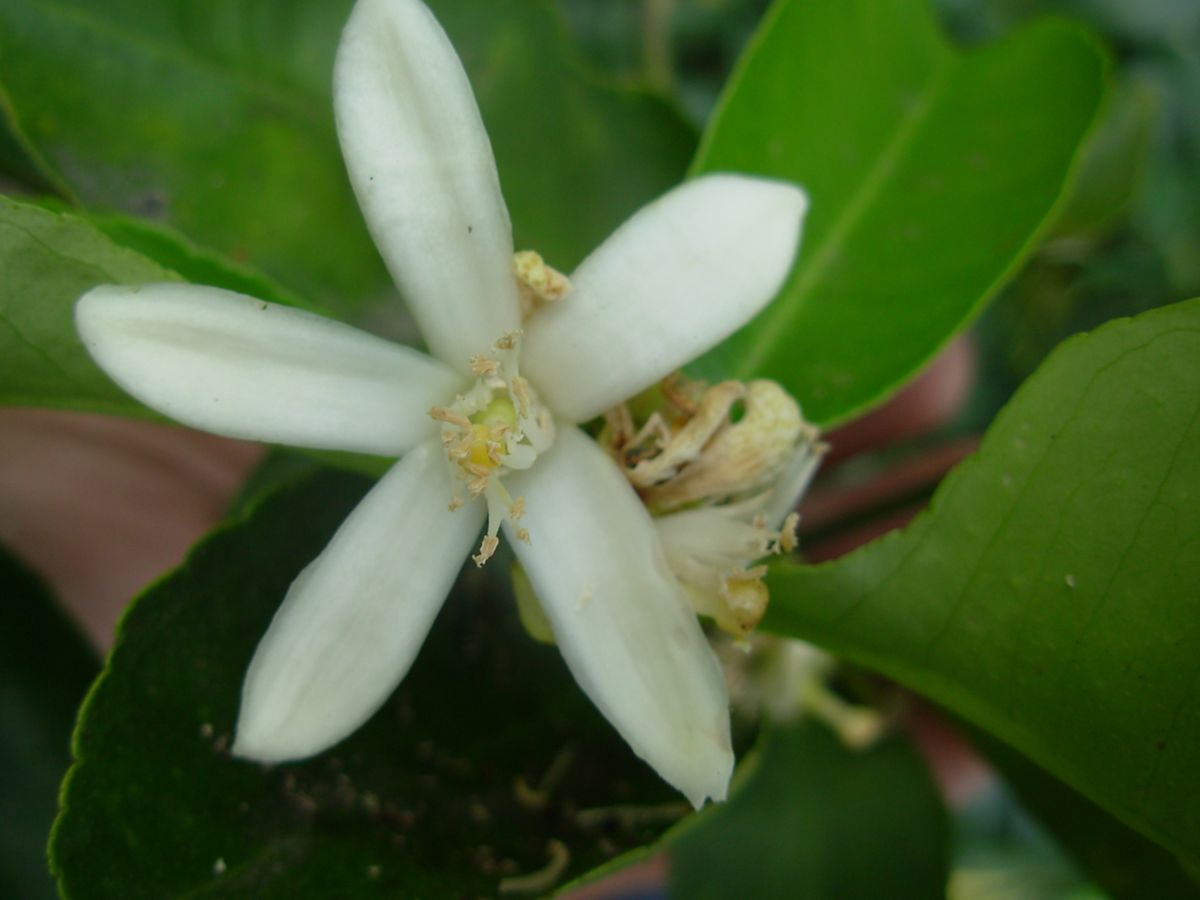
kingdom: Plantae
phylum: Tracheophyta
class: Magnoliopsida
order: Sapindales
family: Rutaceae
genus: Citrus
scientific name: Citrus aurantium
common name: Sour orange
